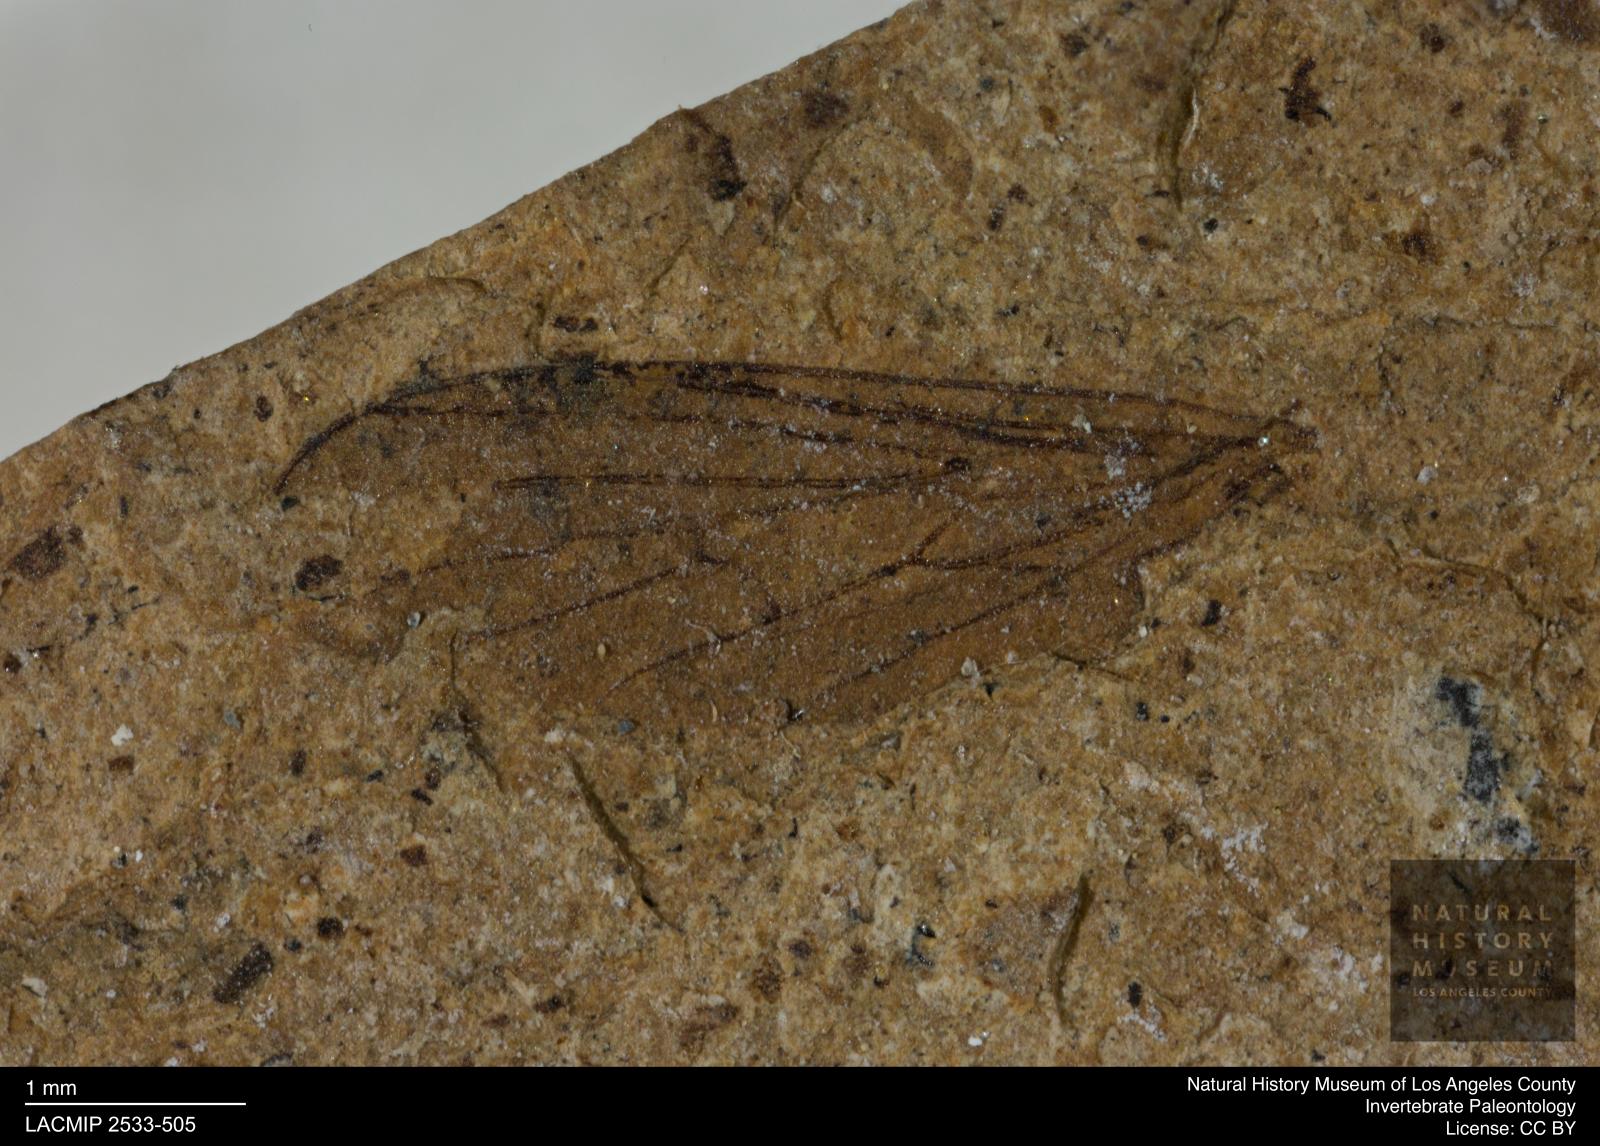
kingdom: Animalia
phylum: Arthropoda
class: Insecta
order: Diptera
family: Empididae
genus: Rhamphomyia
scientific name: Rhamphomyia rottensis
